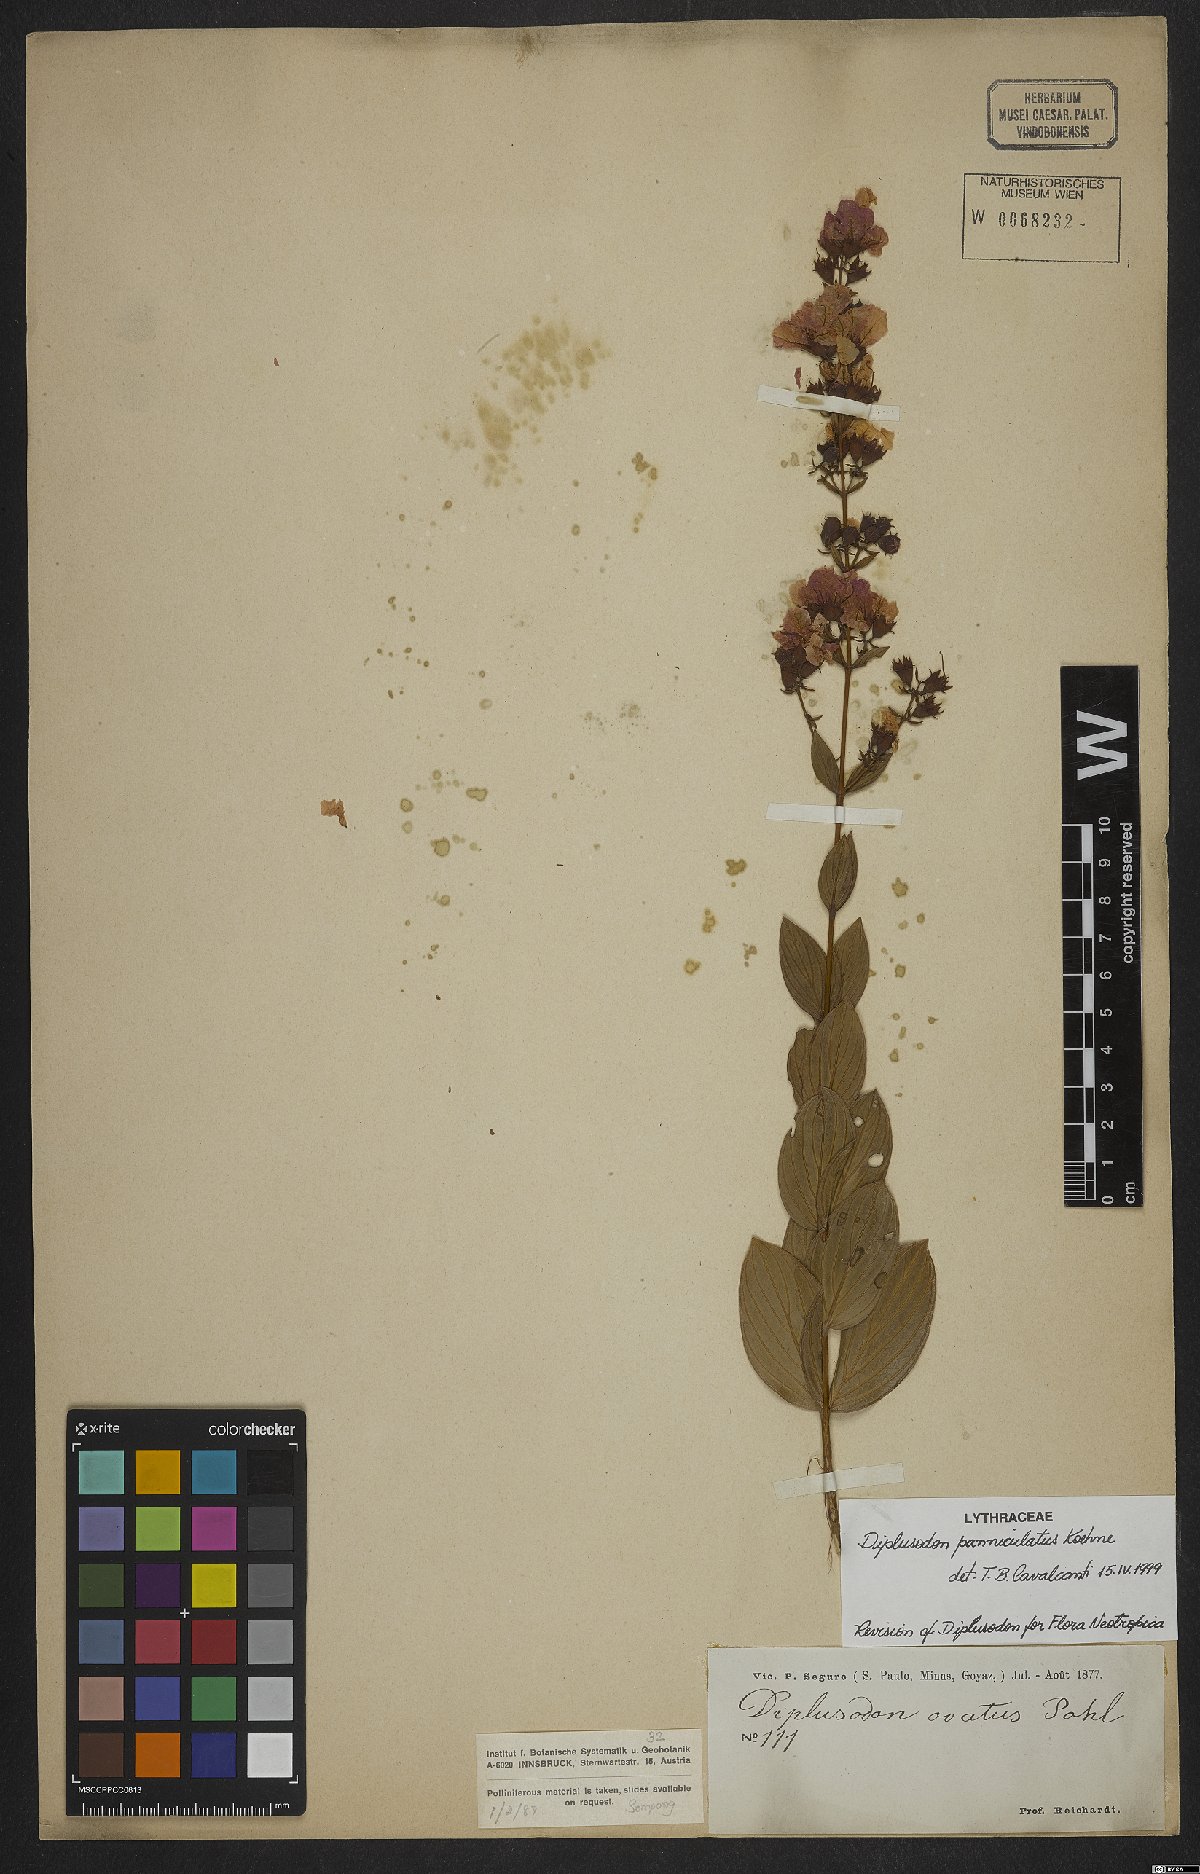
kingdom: Plantae
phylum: Tracheophyta
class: Magnoliopsida
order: Myrtales
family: Lythraceae
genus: Diplusodon
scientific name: Diplusodon panniculatus
